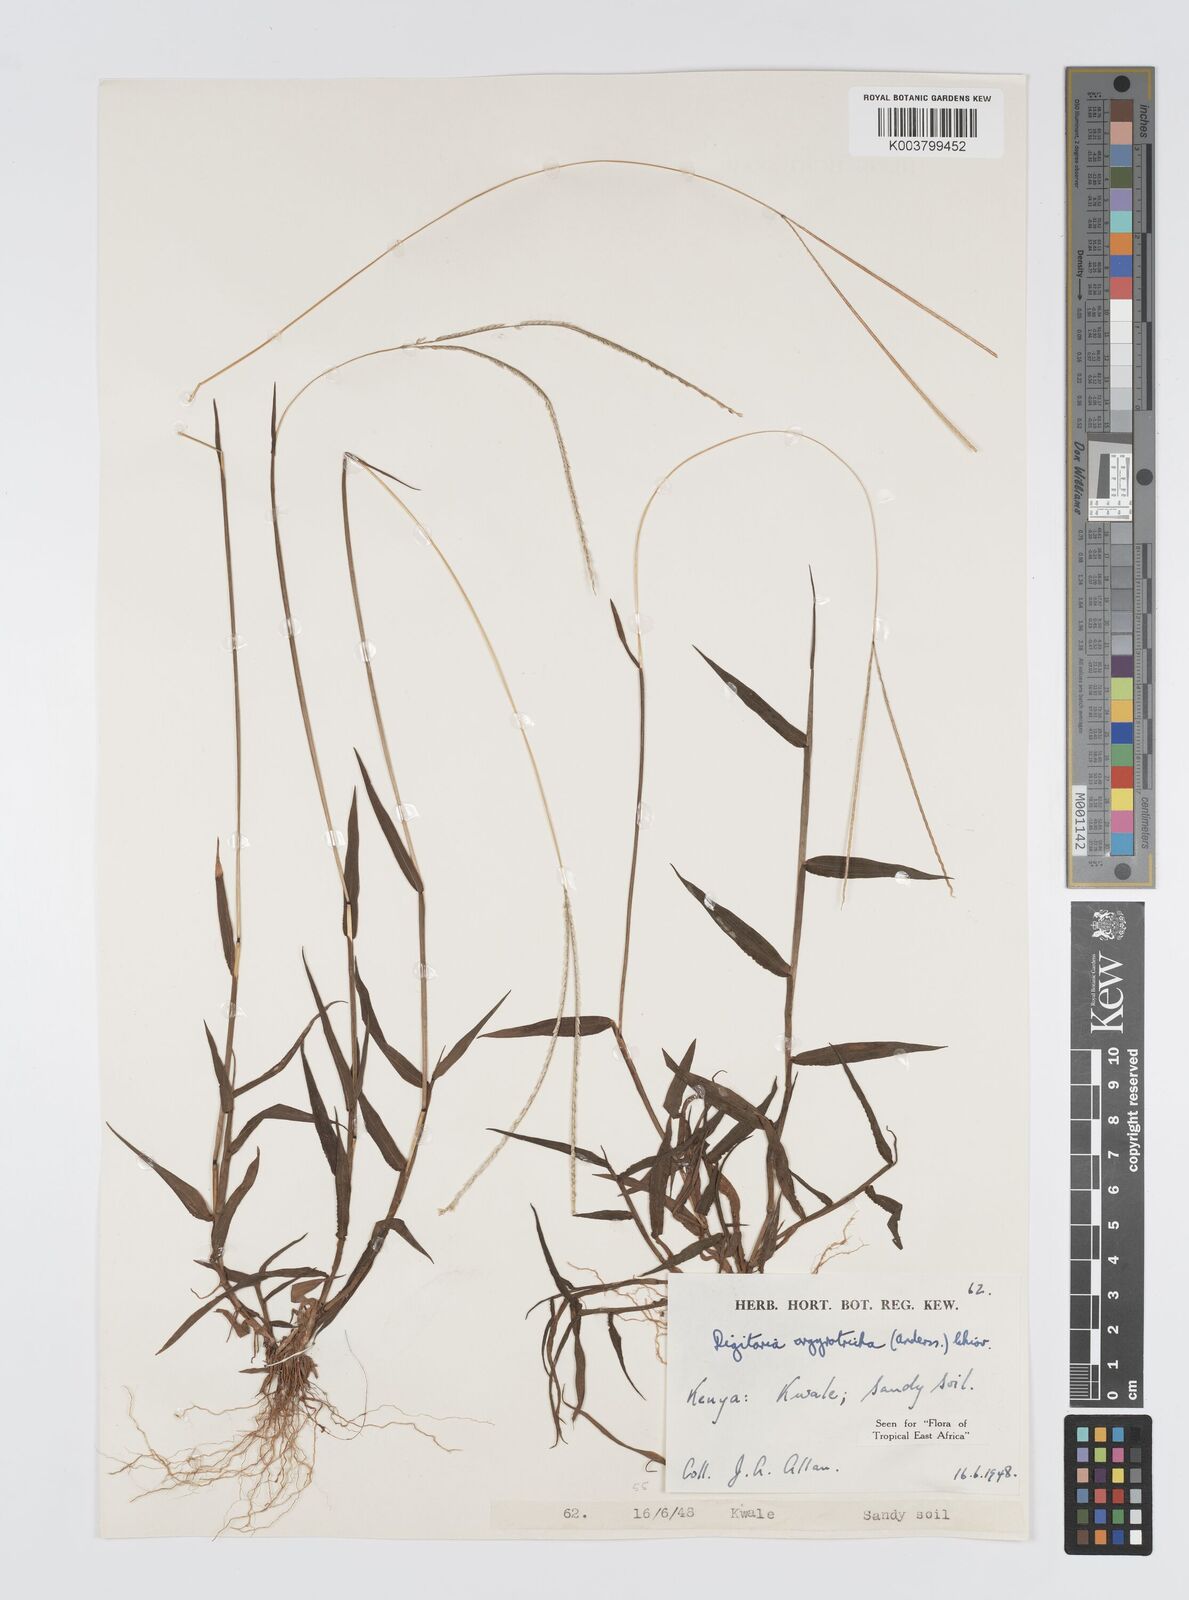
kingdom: Plantae
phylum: Tracheophyta
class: Liliopsida
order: Poales
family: Poaceae
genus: Digitaria
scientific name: Digitaria argyrotricha
